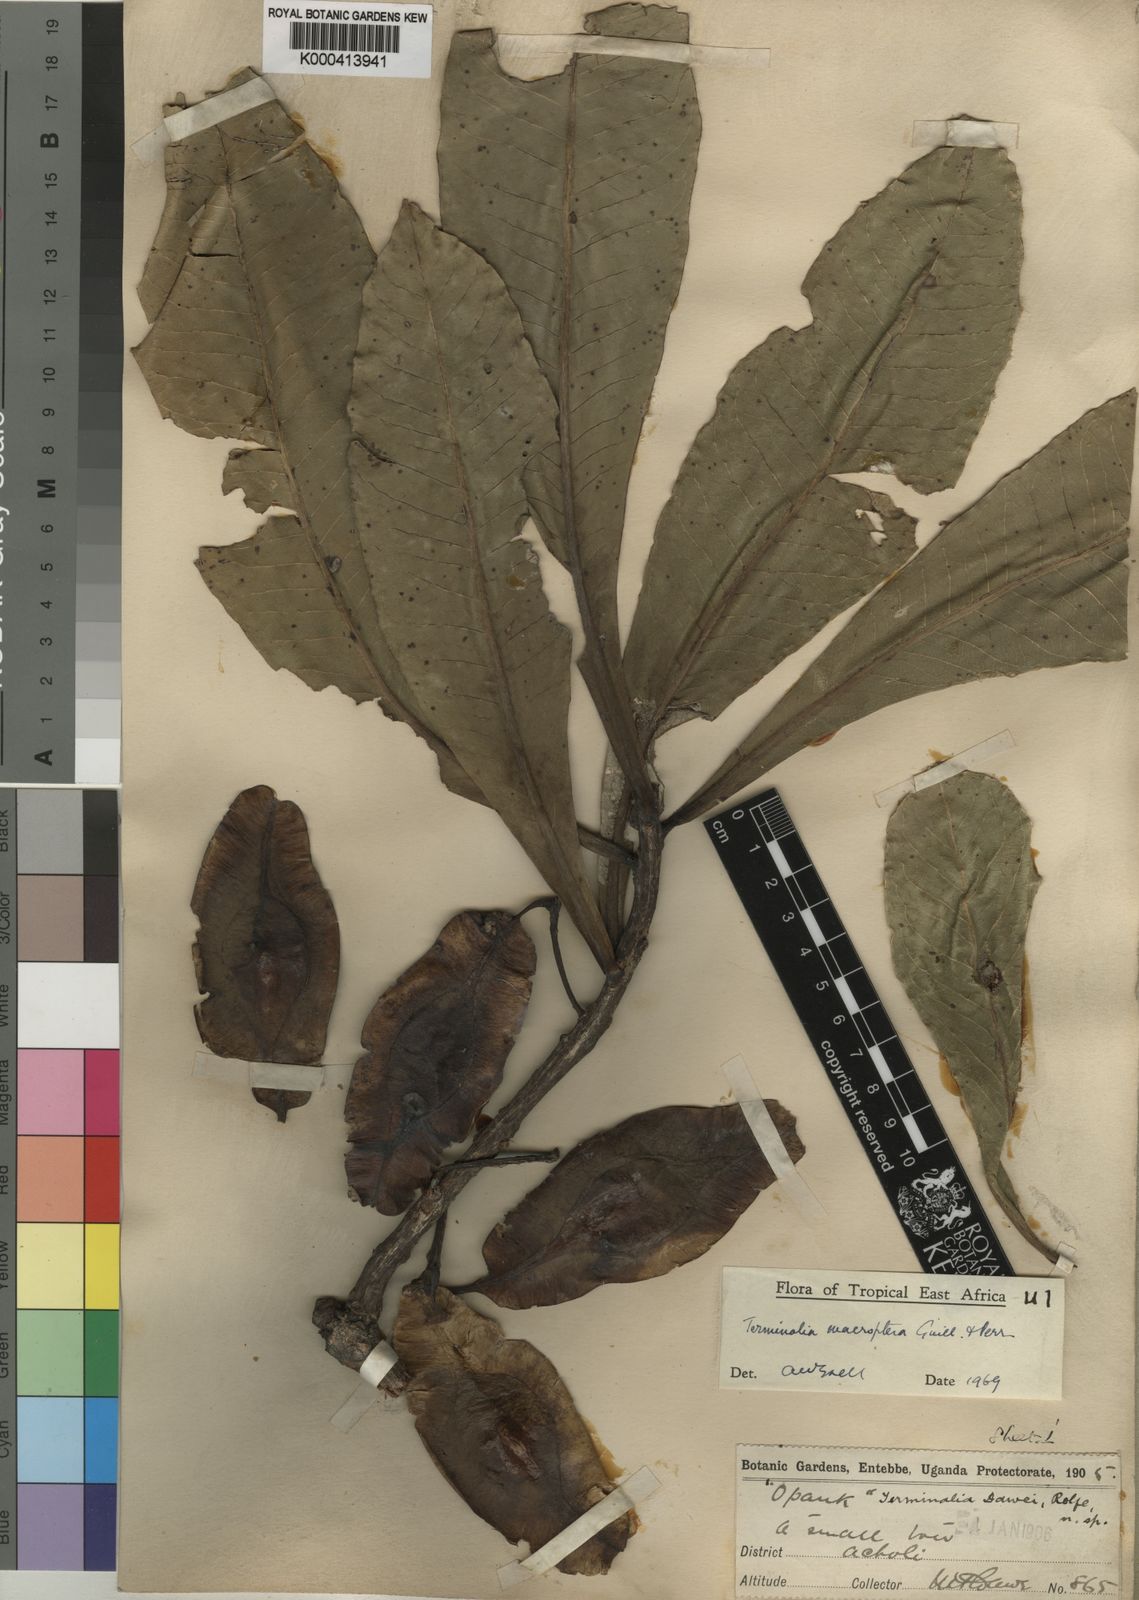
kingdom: Plantae
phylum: Tracheophyta
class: Magnoliopsida
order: Myrtales
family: Combretaceae
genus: Terminalia
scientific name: Terminalia macroptera
